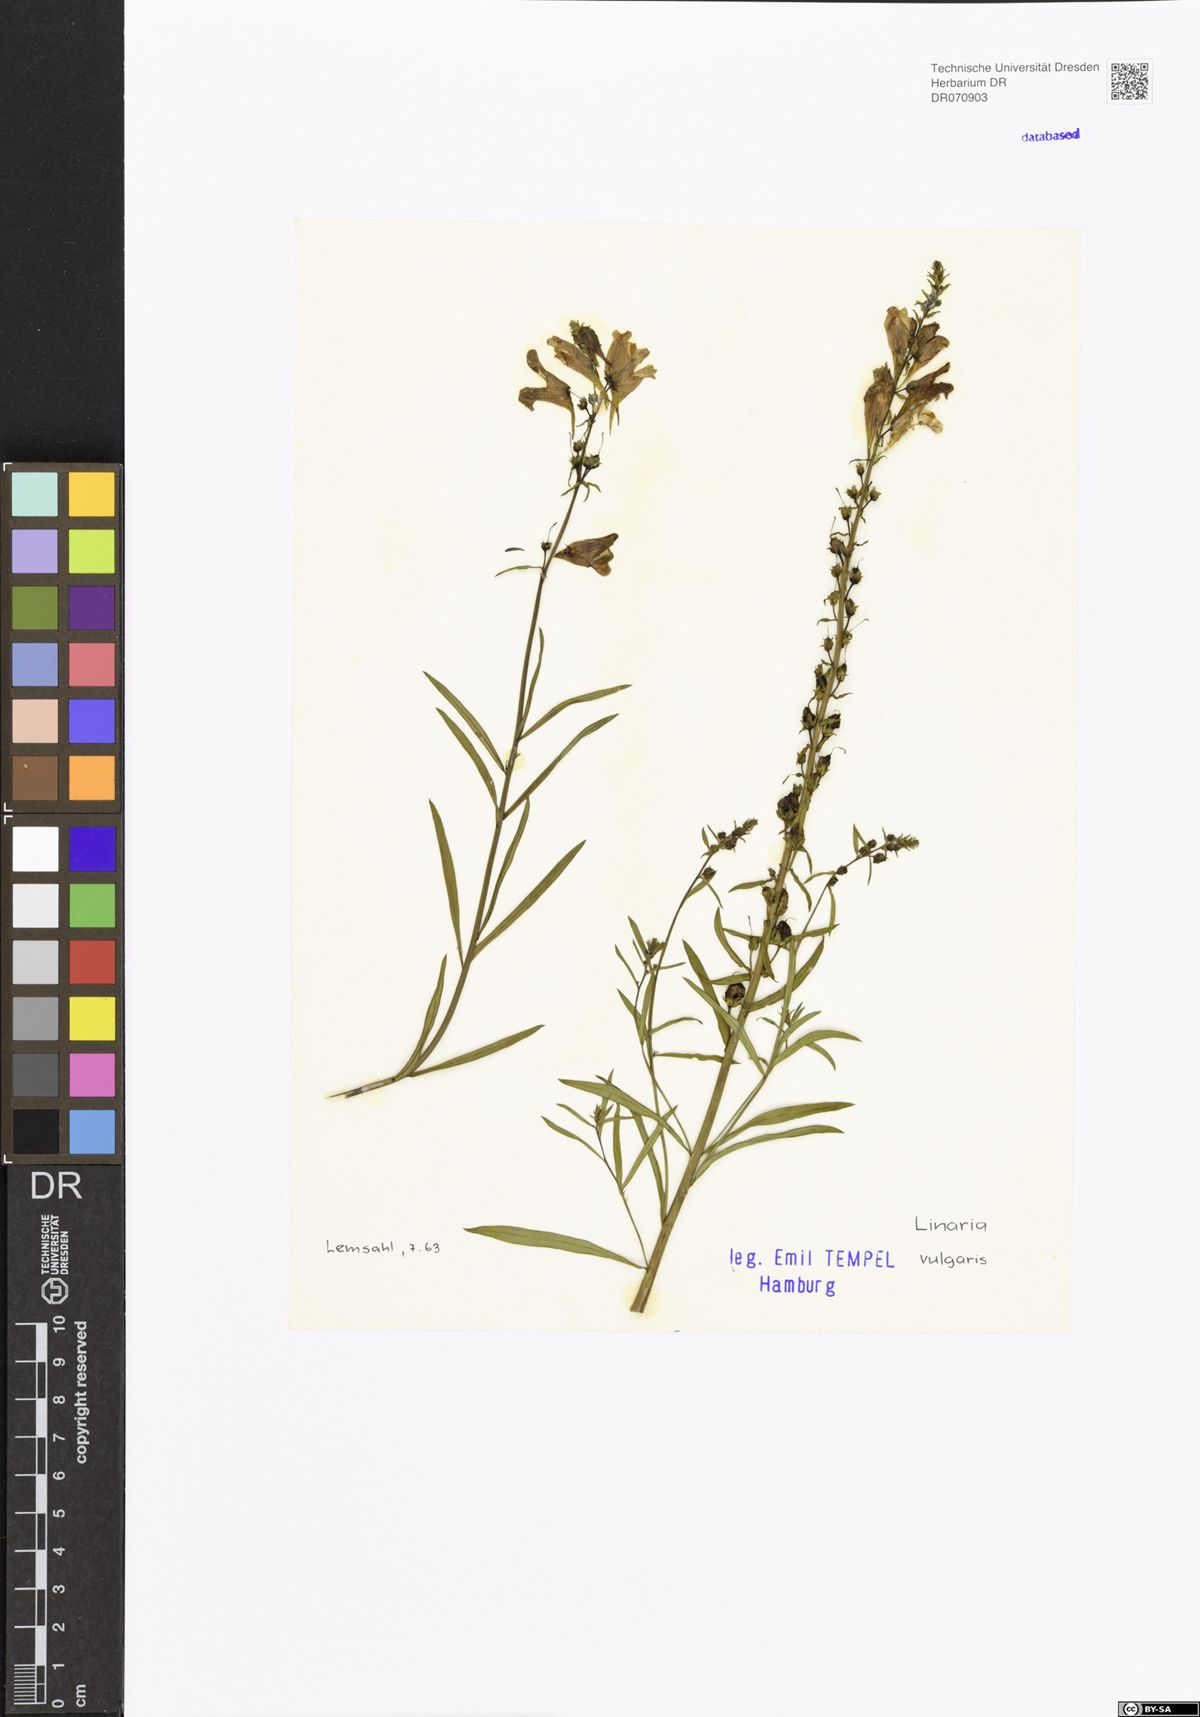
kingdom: Plantae
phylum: Tracheophyta
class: Magnoliopsida
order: Lamiales
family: Plantaginaceae
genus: Linaria
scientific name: Linaria vulgaris
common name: Butter and eggs
